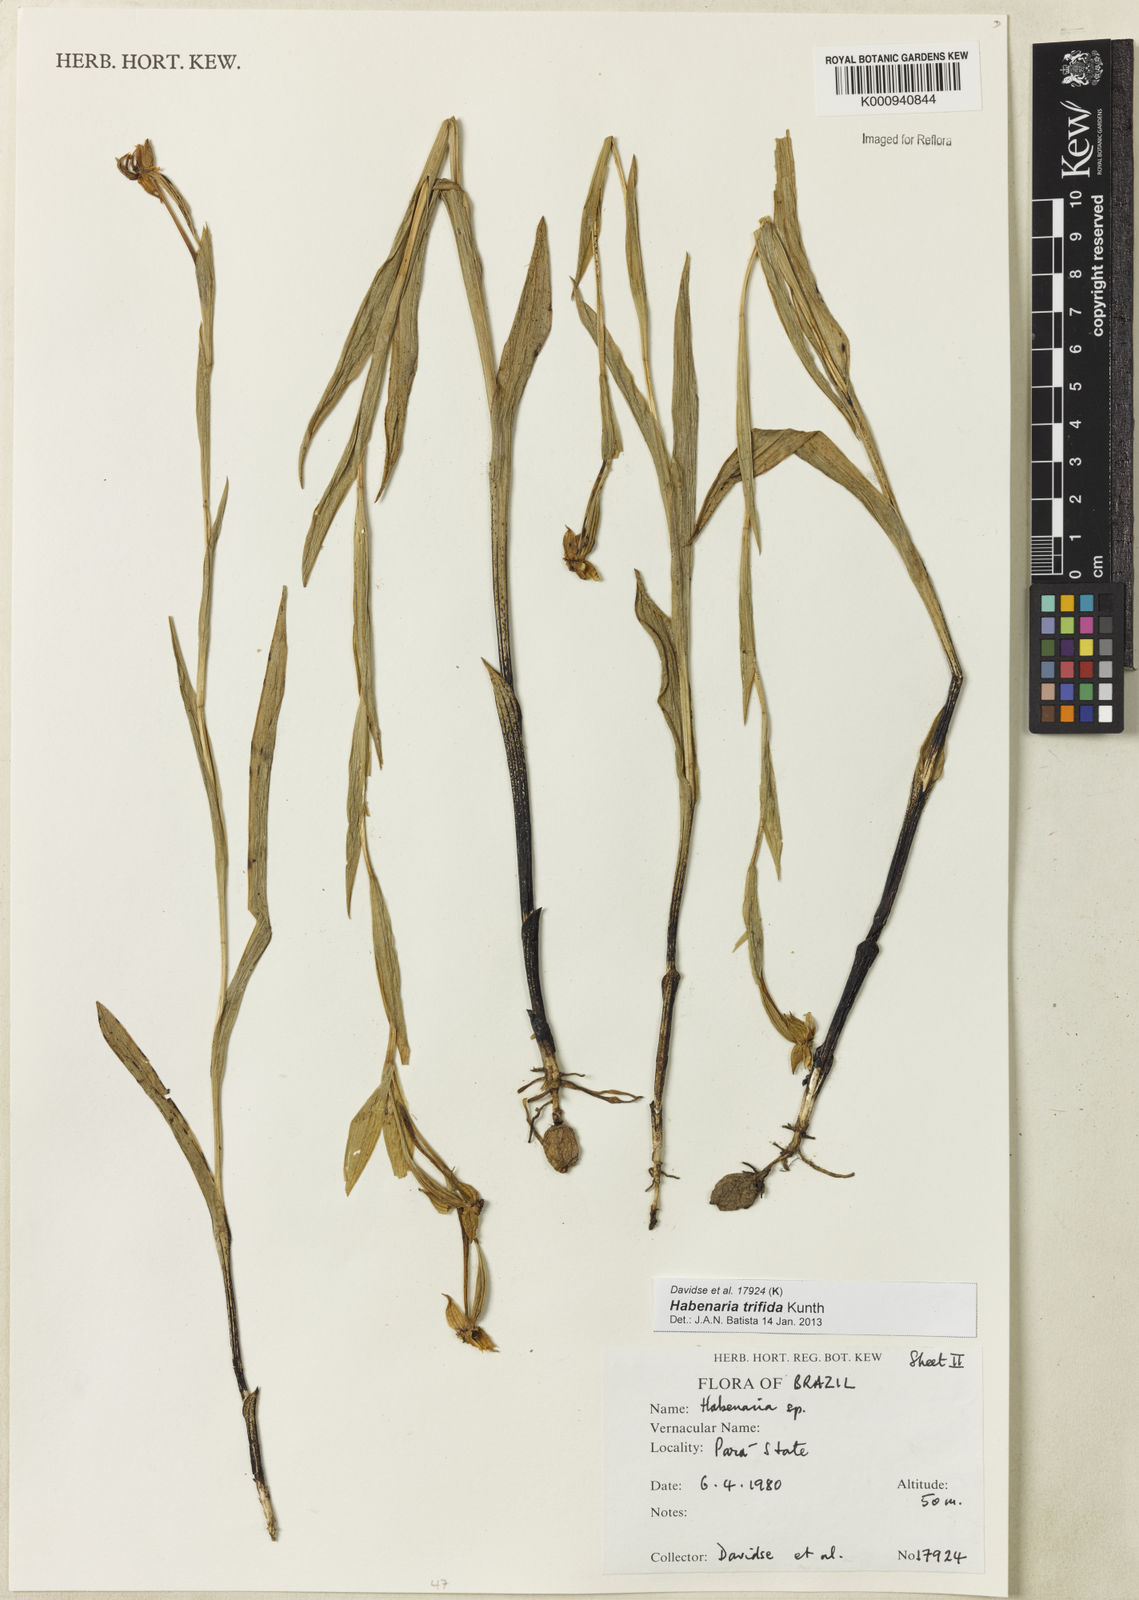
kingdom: Plantae
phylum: Tracheophyta
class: Liliopsida
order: Asparagales
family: Orchidaceae
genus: Habenaria
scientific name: Habenaria trifida
